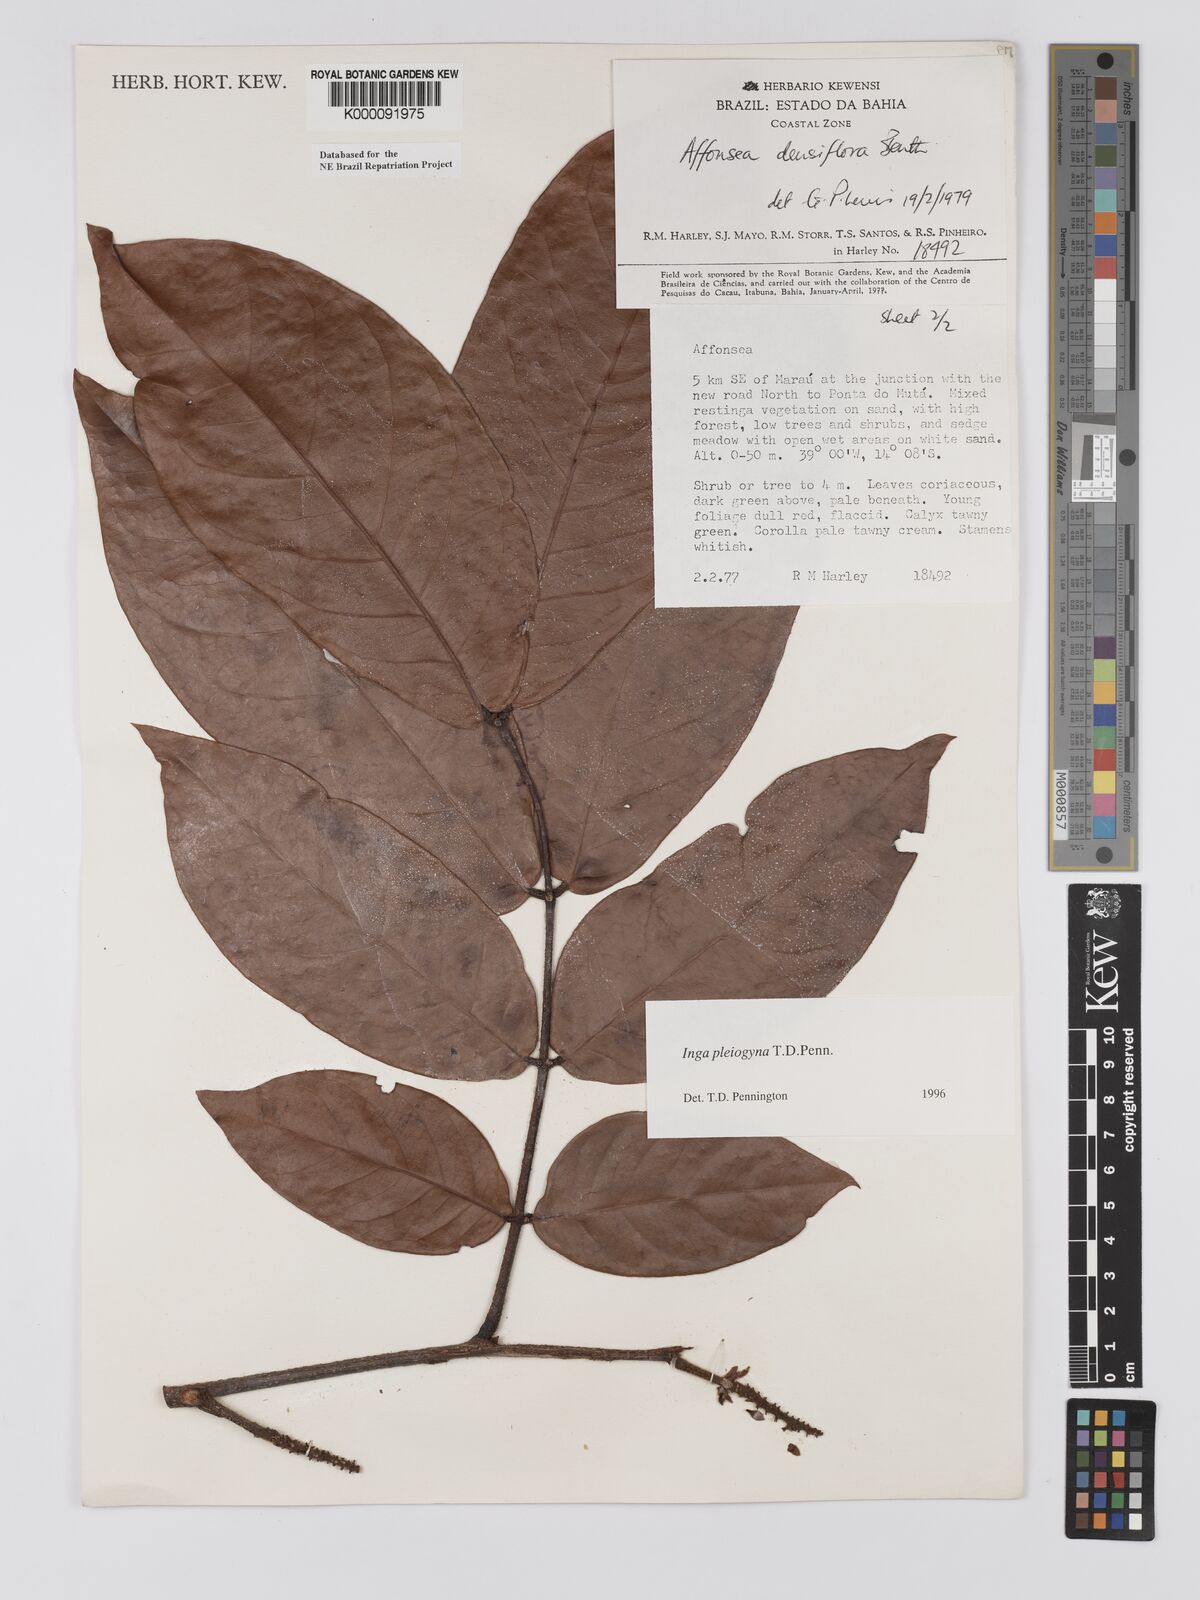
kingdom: Plantae
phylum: Tracheophyta
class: Magnoliopsida
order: Fabales
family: Fabaceae
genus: Inga
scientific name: Inga pleiogyna
